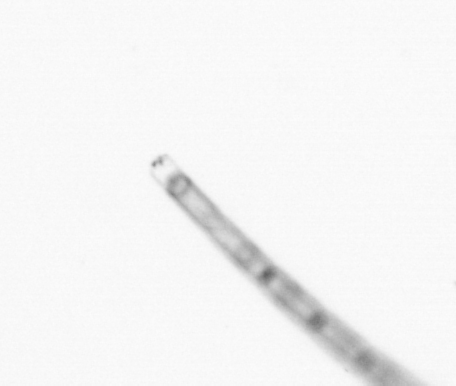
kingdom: Chromista
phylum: Ochrophyta
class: Bacillariophyceae
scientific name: Bacillariophyceae
